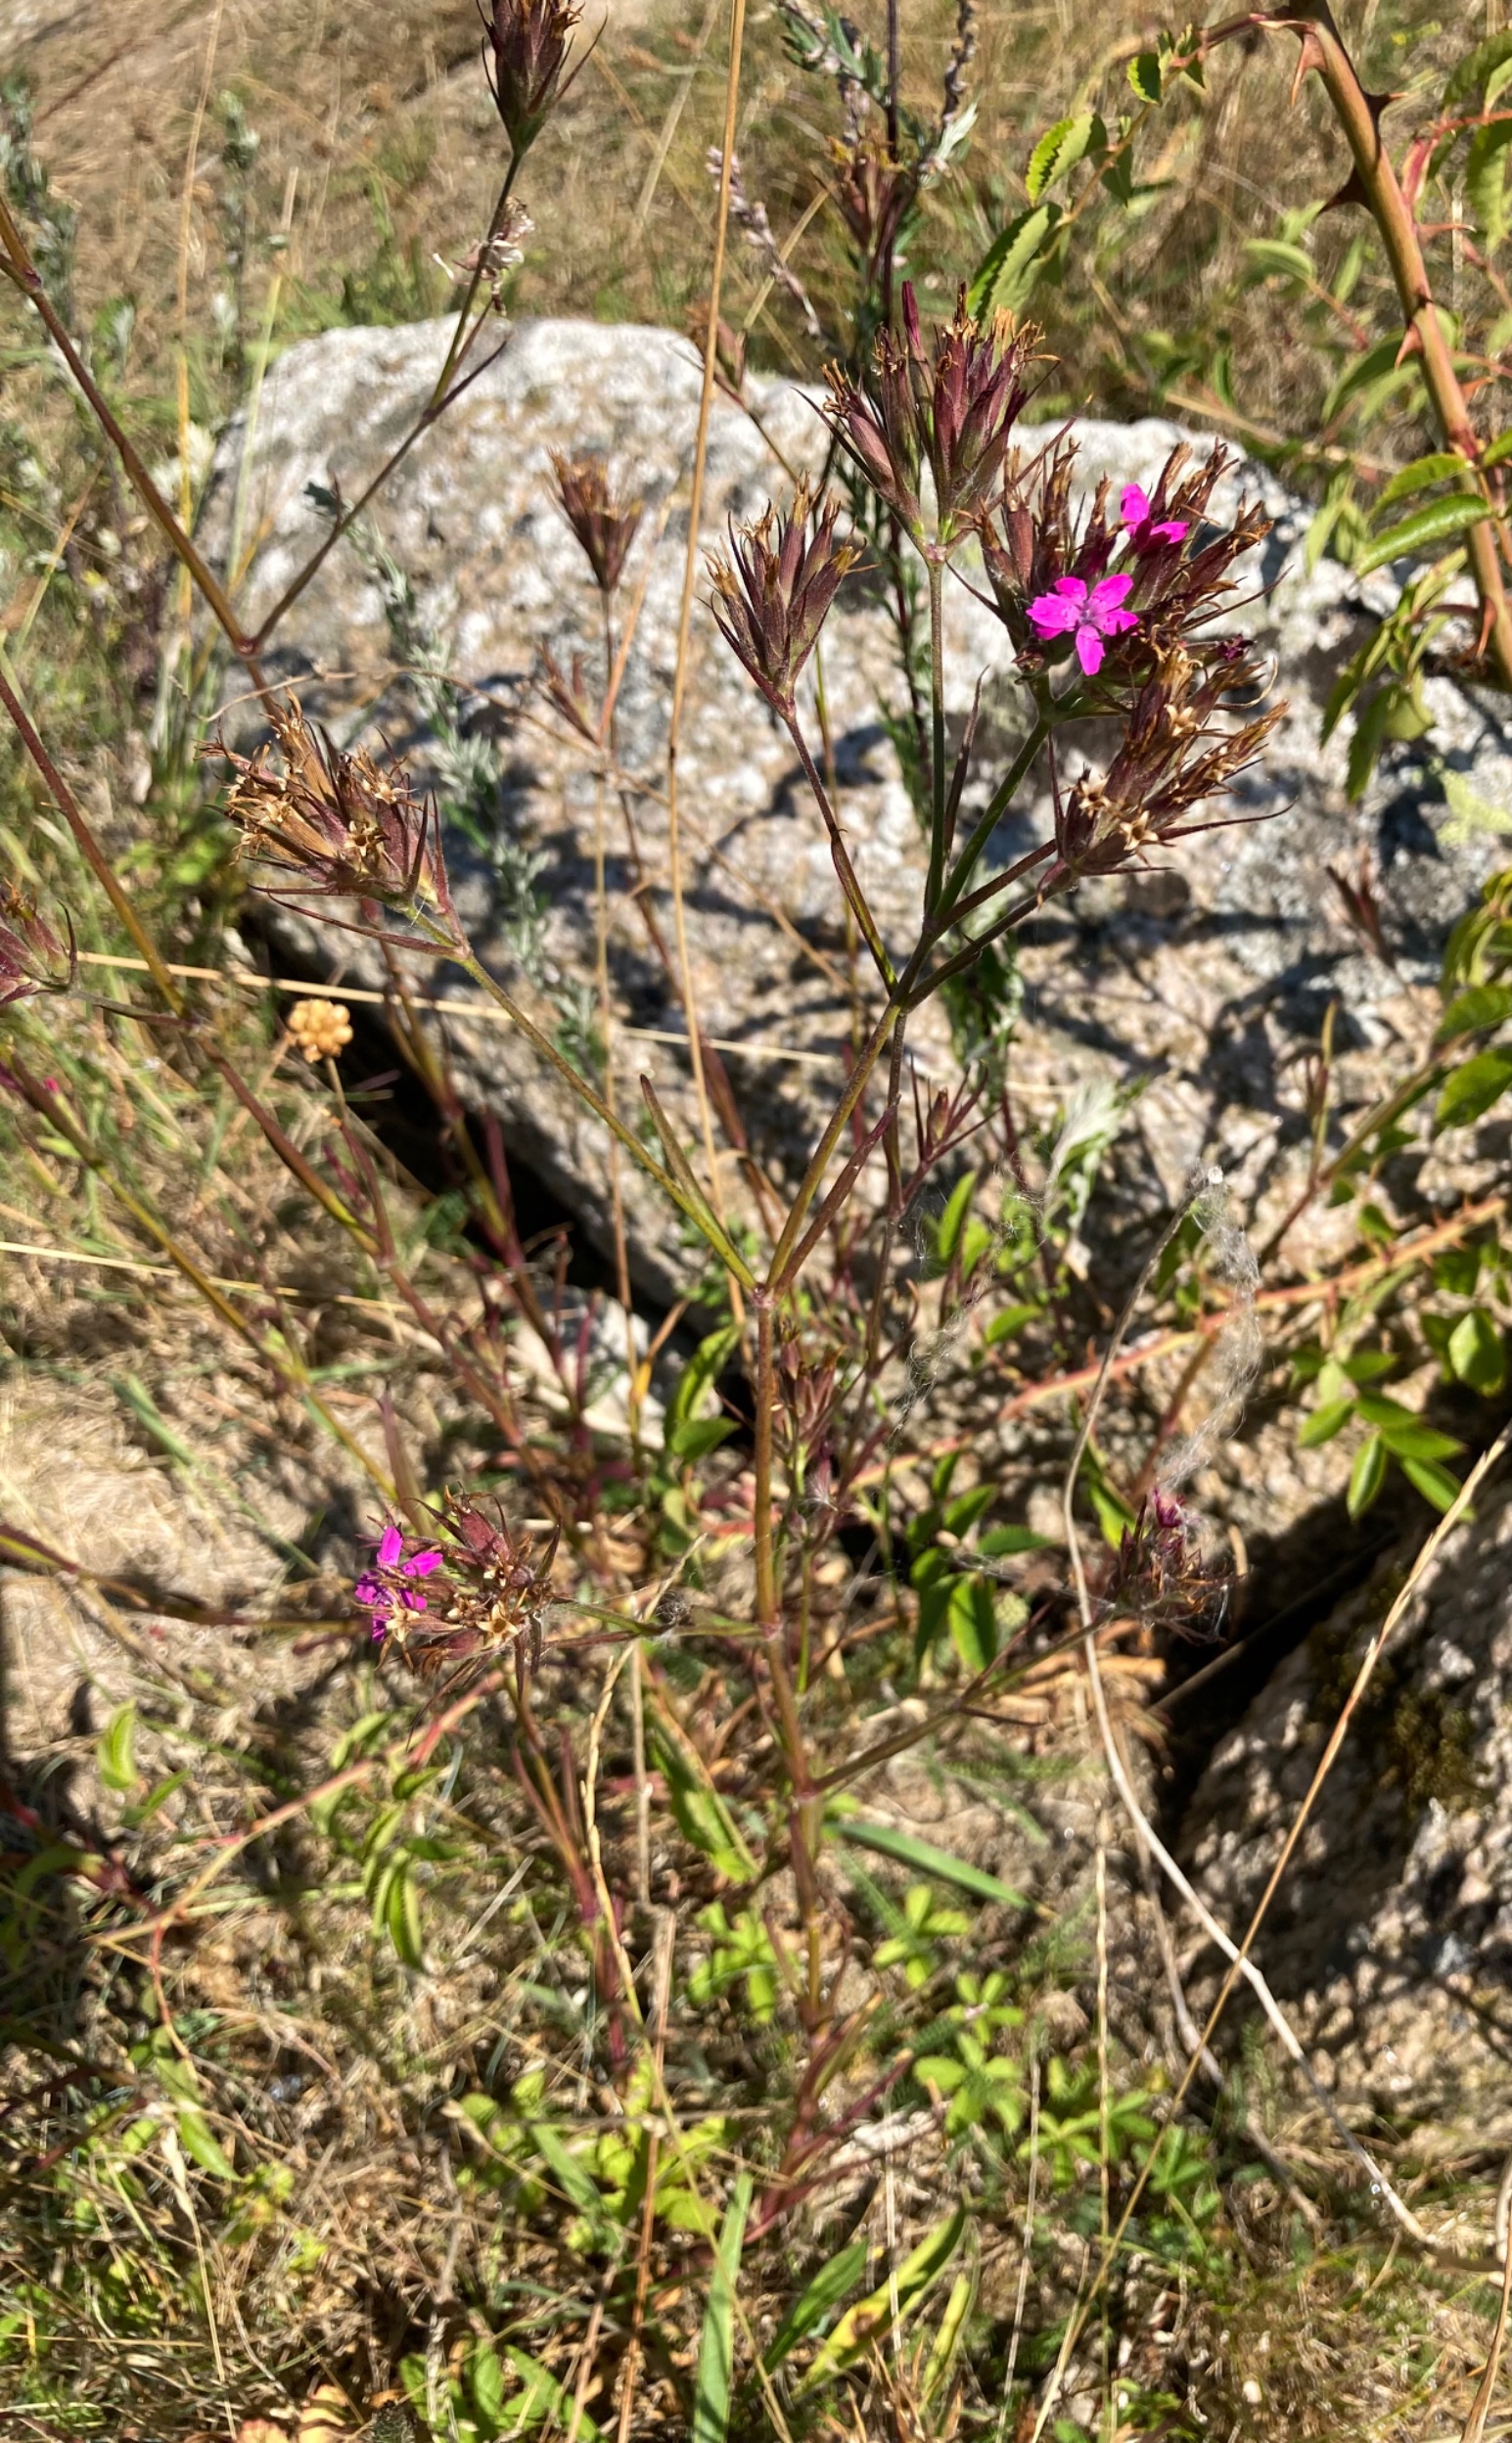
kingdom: Plantae
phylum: Tracheophyta
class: Magnoliopsida
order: Caryophyllales
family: Caryophyllaceae
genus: Dianthus
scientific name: Dianthus armeria
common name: Kost-nellike
